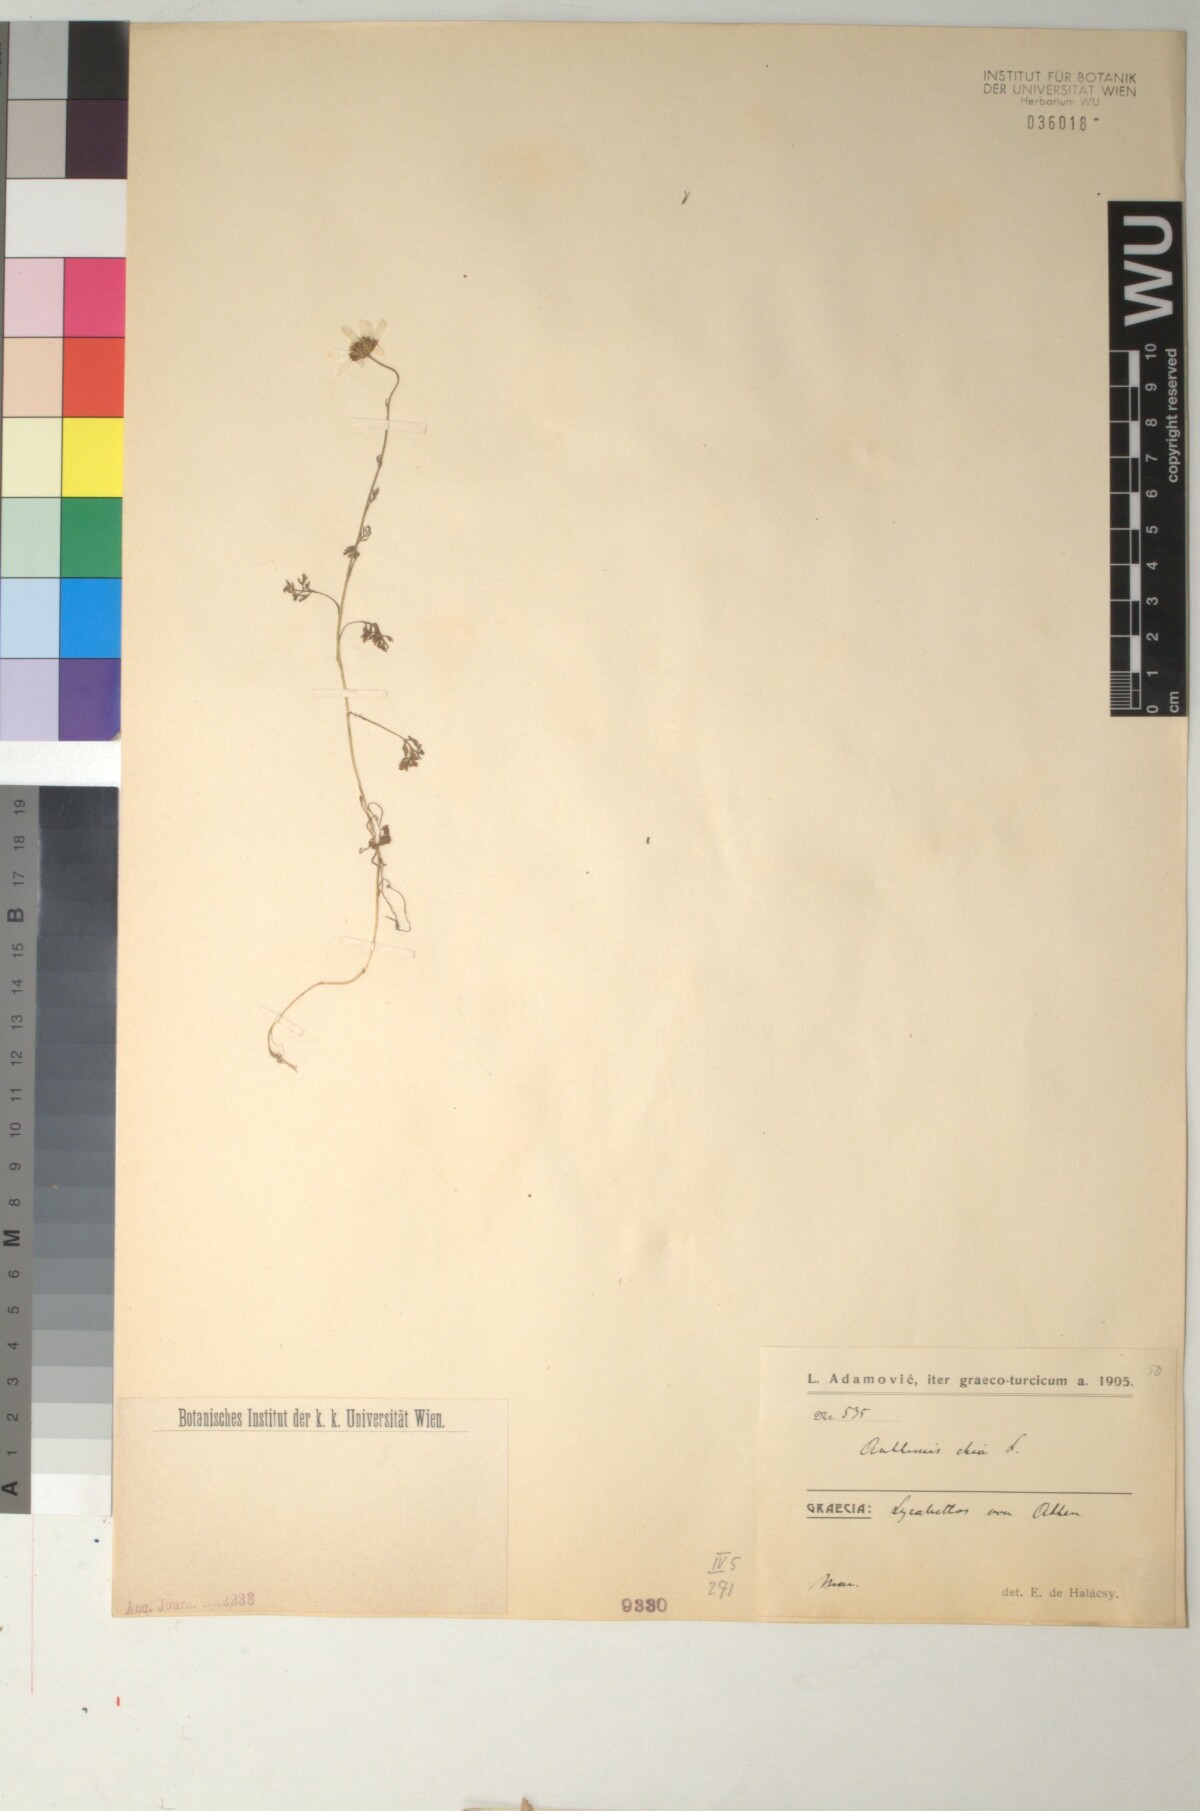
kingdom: Plantae
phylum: Tracheophyta
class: Magnoliopsida
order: Asterales
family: Asteraceae
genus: Anthemis
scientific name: Anthemis chia
